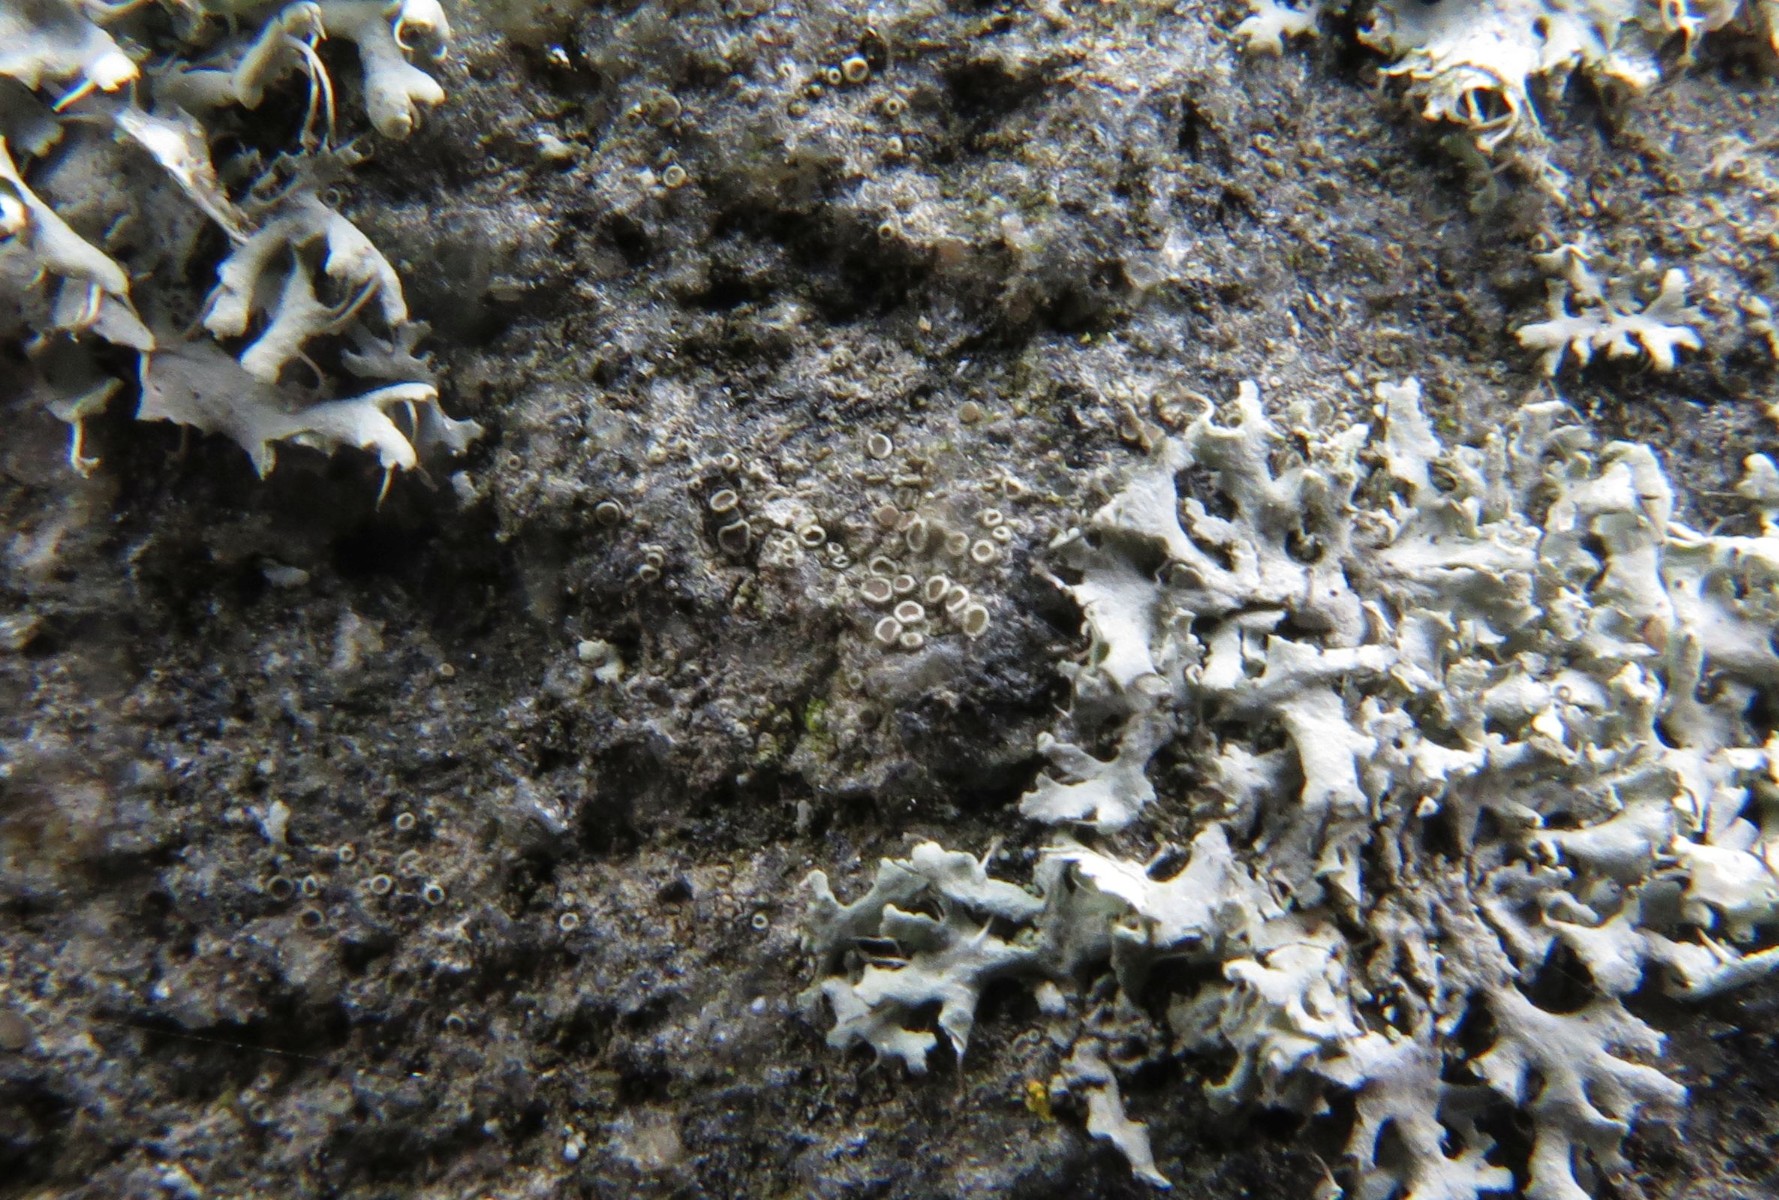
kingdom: Fungi
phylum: Ascomycota
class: Lecanoromycetes
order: Lecanorales
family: Lecanoraceae
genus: Myriolecis
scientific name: Myriolecis
